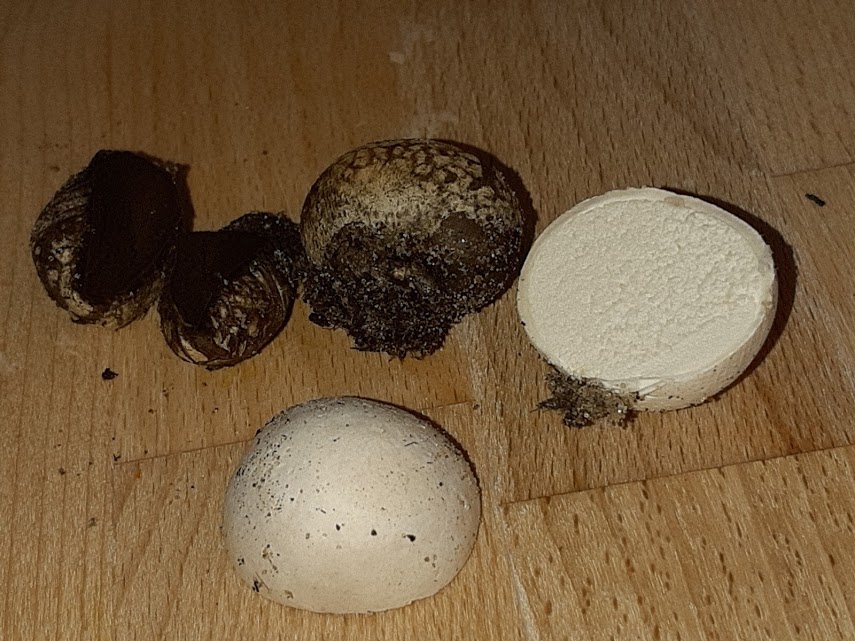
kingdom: Fungi
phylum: Basidiomycota
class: Agaricomycetes
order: Agaricales
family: Lycoperdaceae
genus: Bovista
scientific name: Bovista
